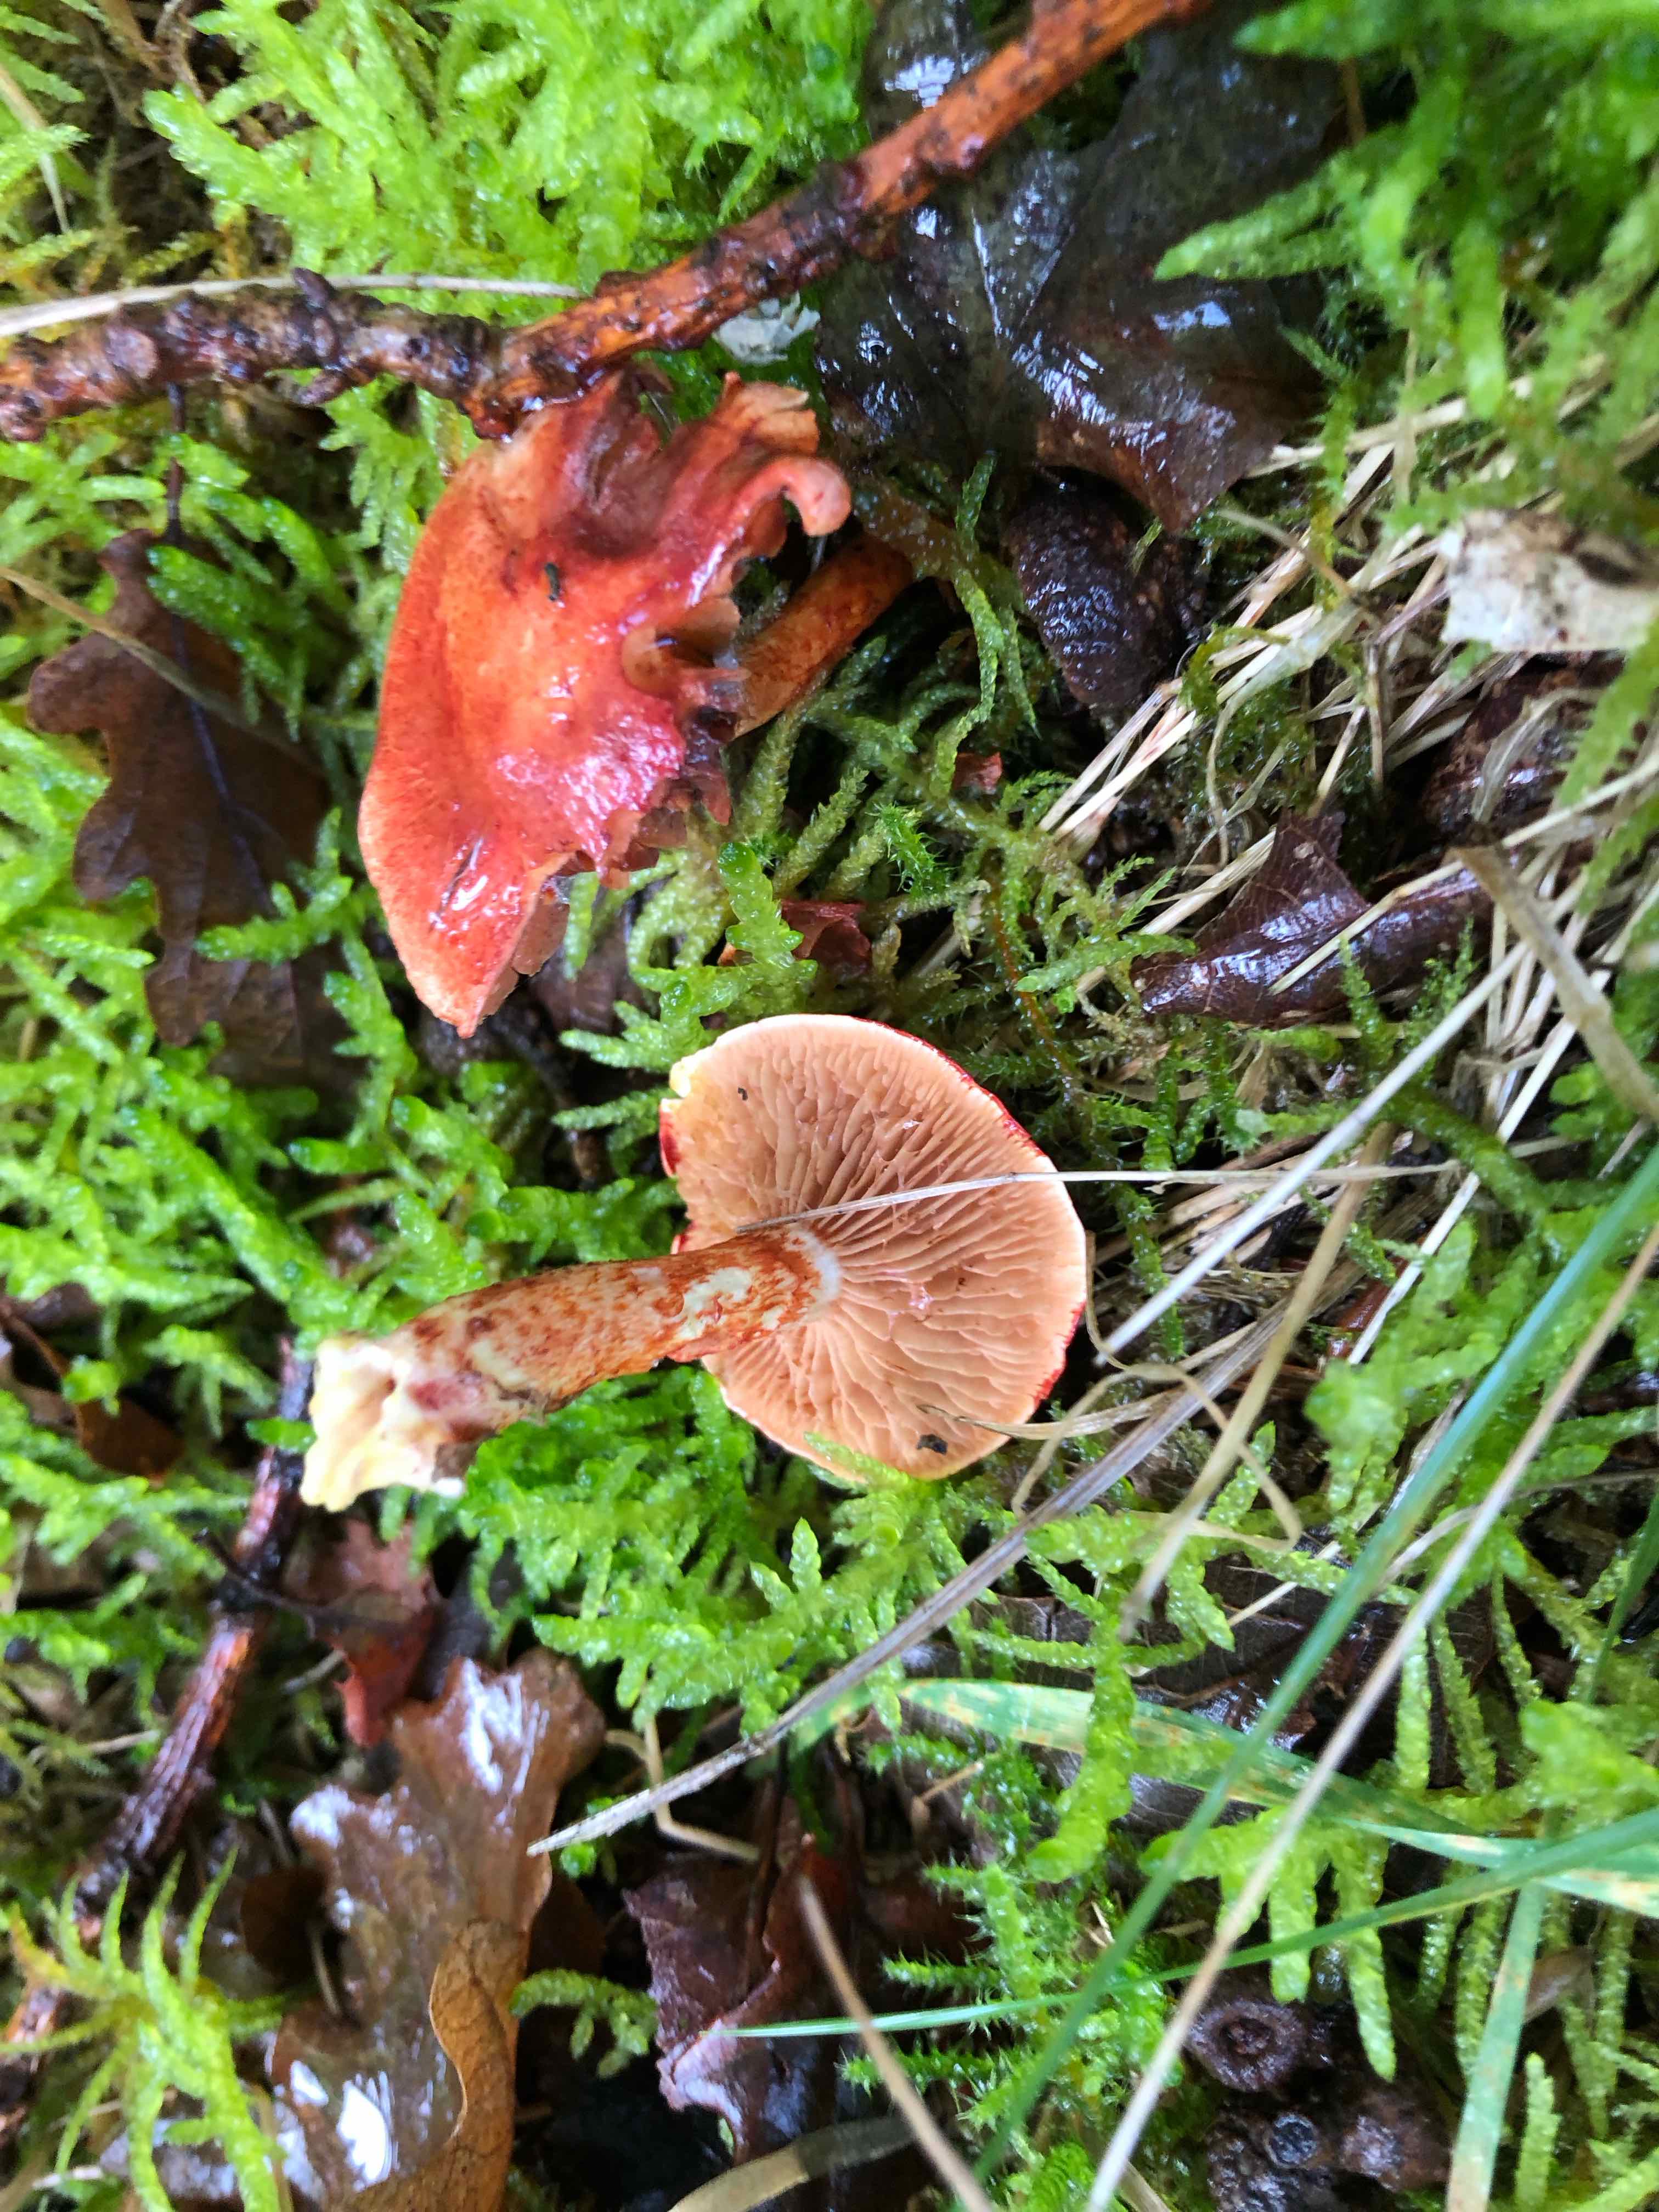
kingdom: Fungi
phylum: Basidiomycota
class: Agaricomycetes
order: Agaricales
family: Cortinariaceae
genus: Cortinarius
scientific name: Cortinarius bolaris
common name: cinnoberskællet slørhat
